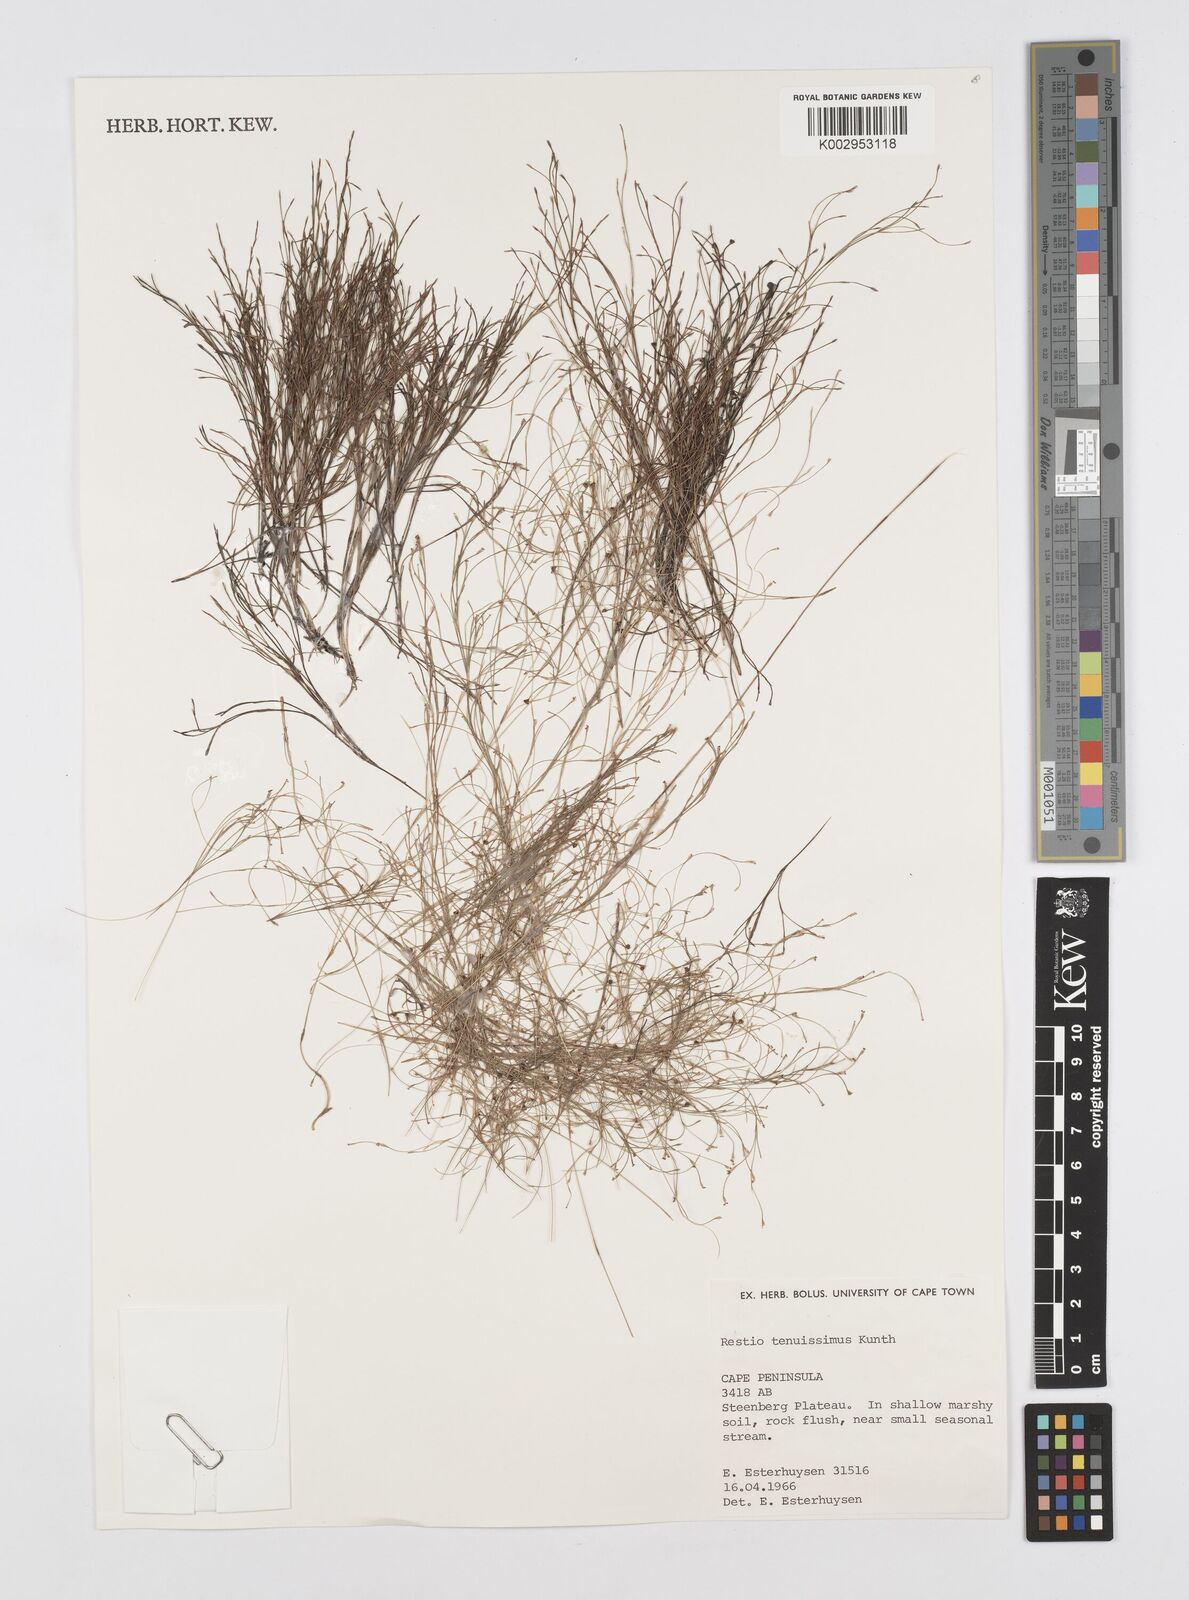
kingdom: Plantae
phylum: Tracheophyta
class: Liliopsida
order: Poales
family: Restionaceae
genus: Restio
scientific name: Restio tenuissimus
